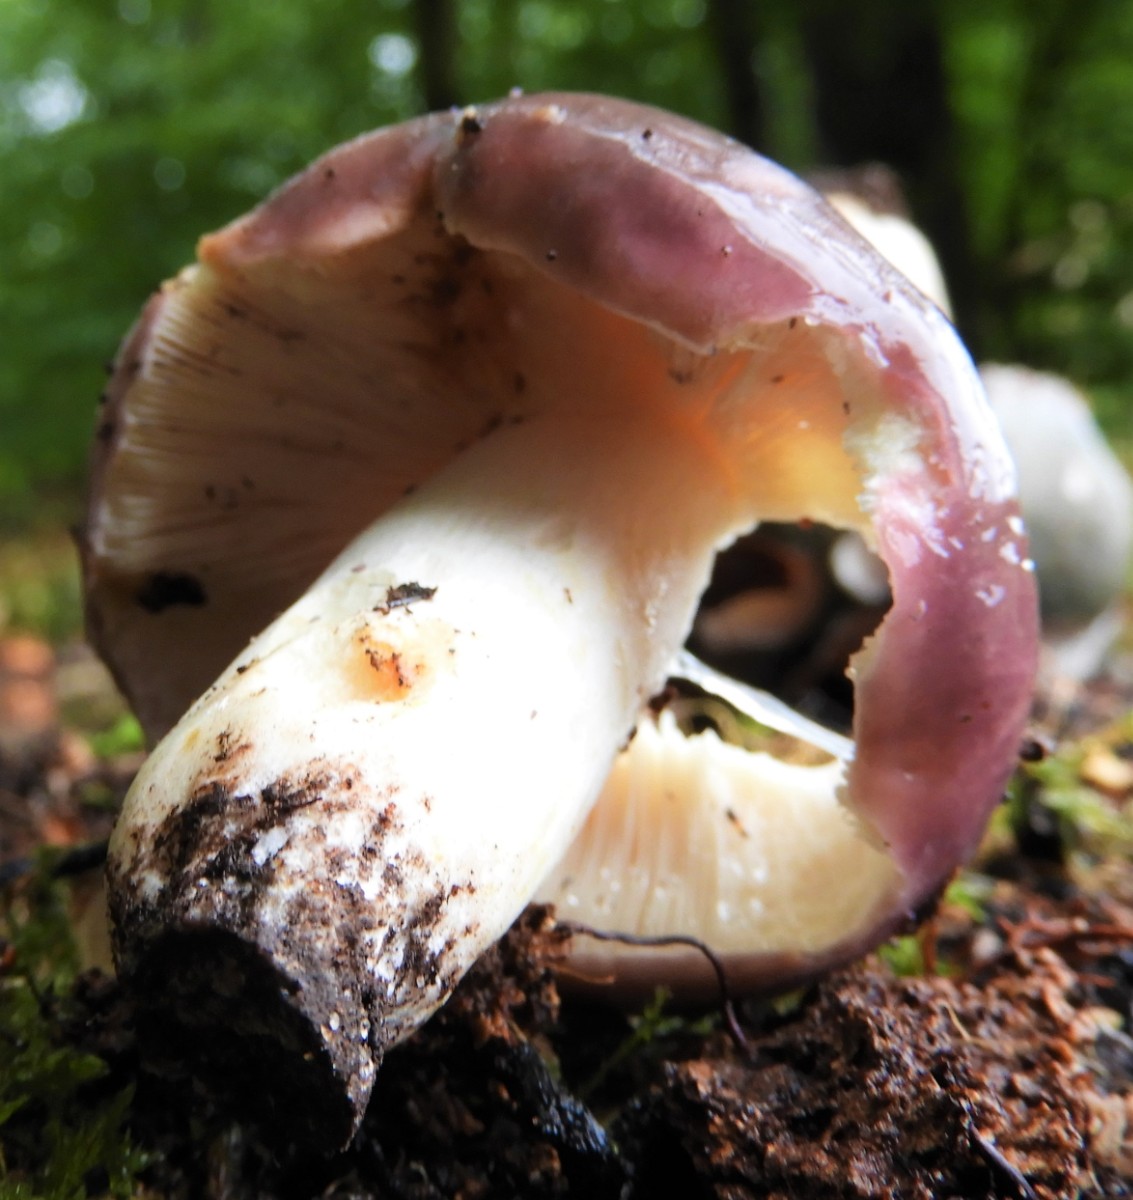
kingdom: Fungi
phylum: Basidiomycota
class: Agaricomycetes
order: Russulales
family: Russulaceae
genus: Russula
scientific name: Russula vesca
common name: spiselig skørhat
